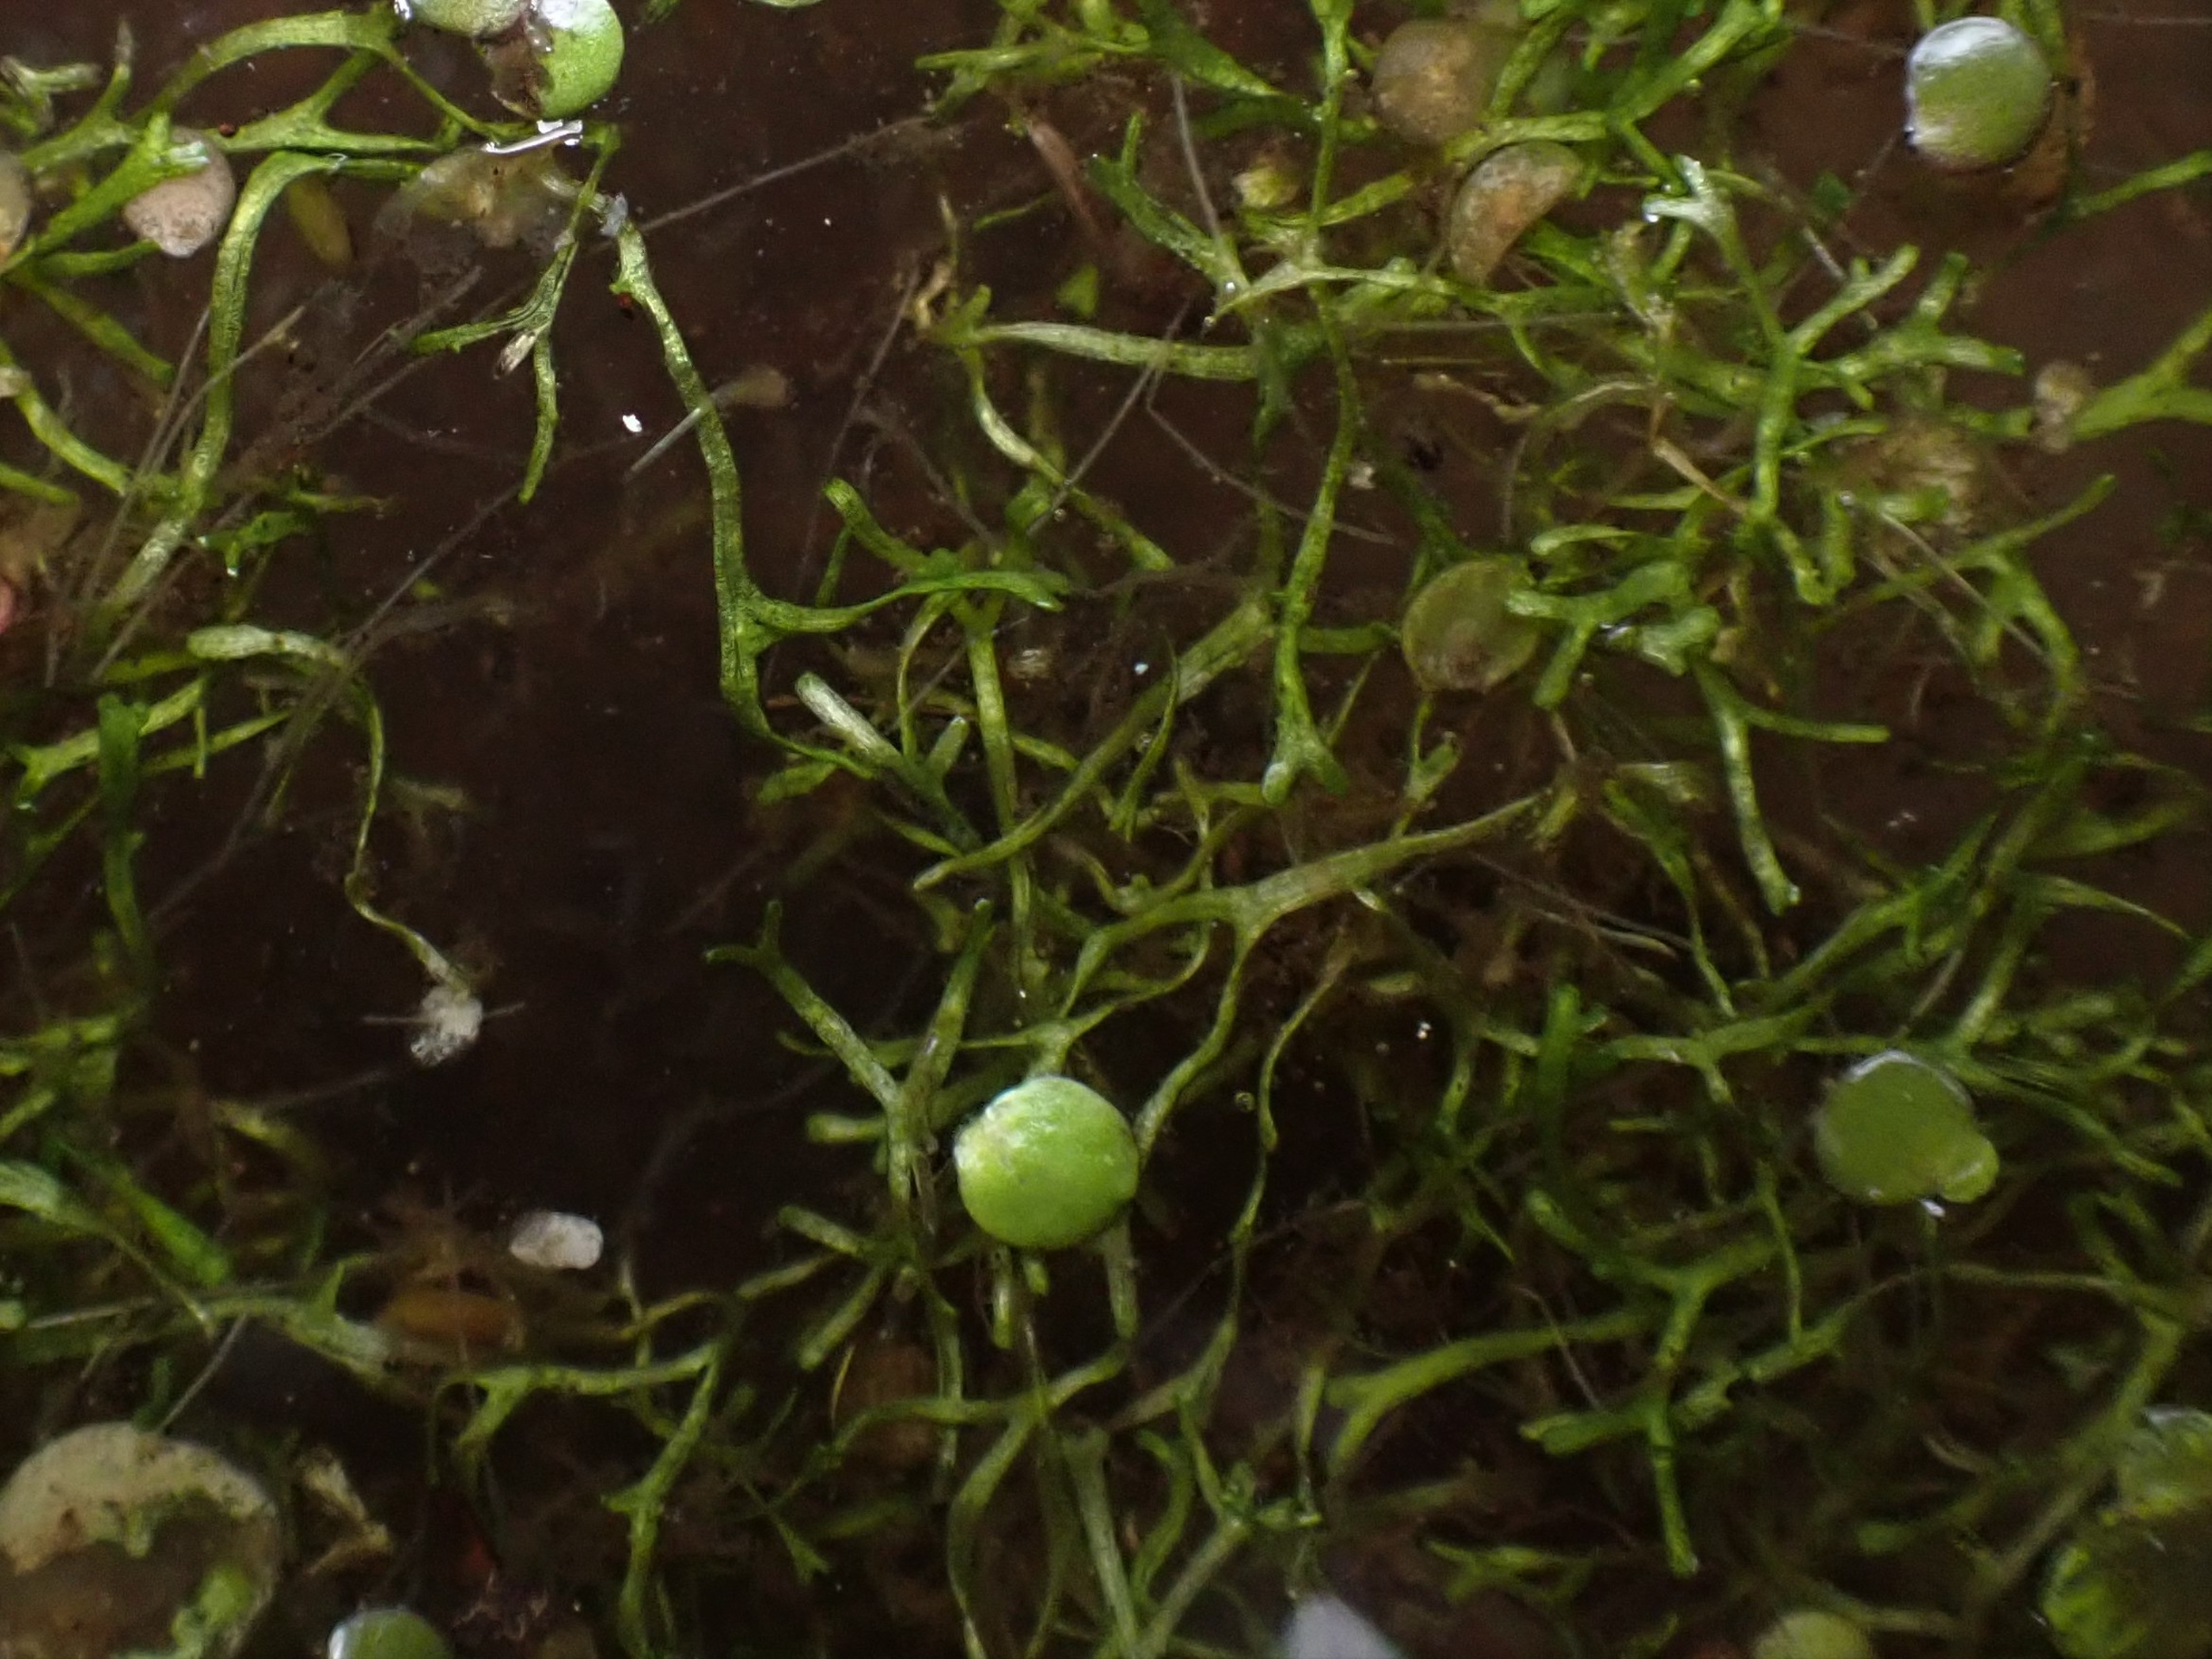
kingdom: Plantae
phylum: Marchantiophyta
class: Marchantiopsida
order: Marchantiales
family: Ricciaceae
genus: Riccia
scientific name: Riccia fluitans
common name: Svømmende stjerneløv
